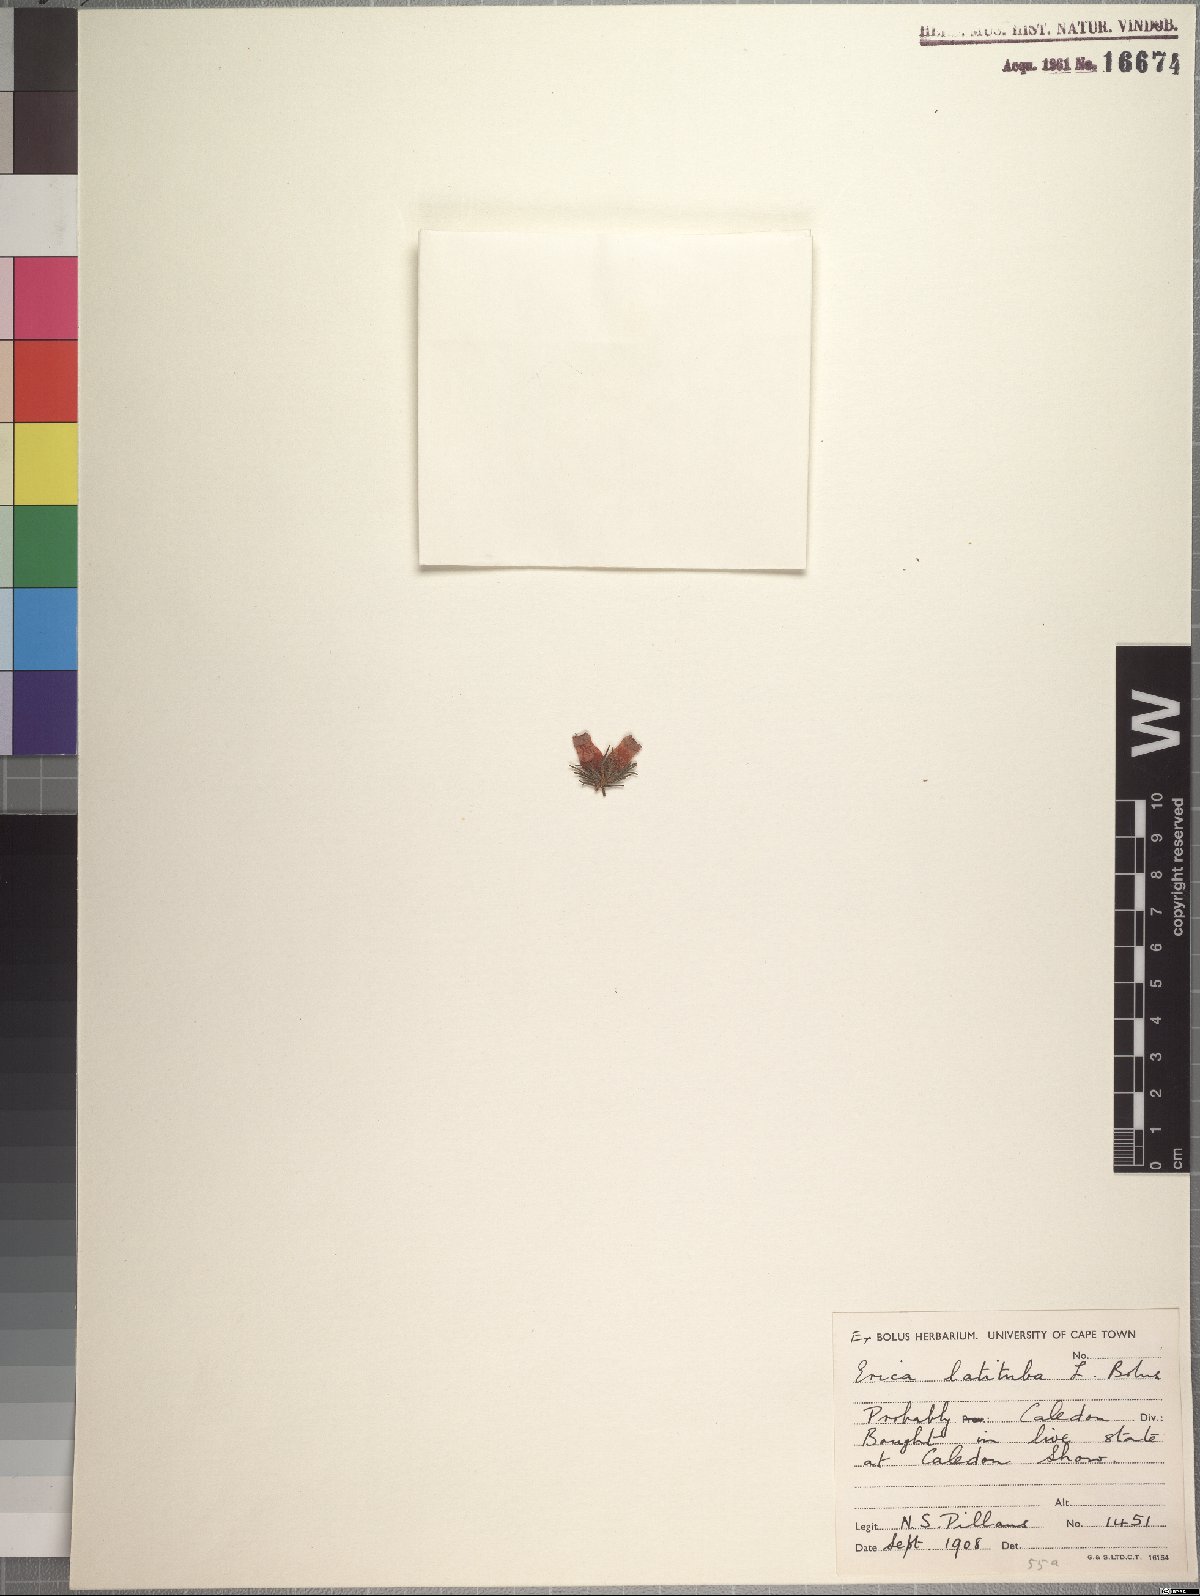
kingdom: Plantae
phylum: Tracheophyta
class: Magnoliopsida
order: Ericales
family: Ericaceae
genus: Erica
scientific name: Erica curviflora
